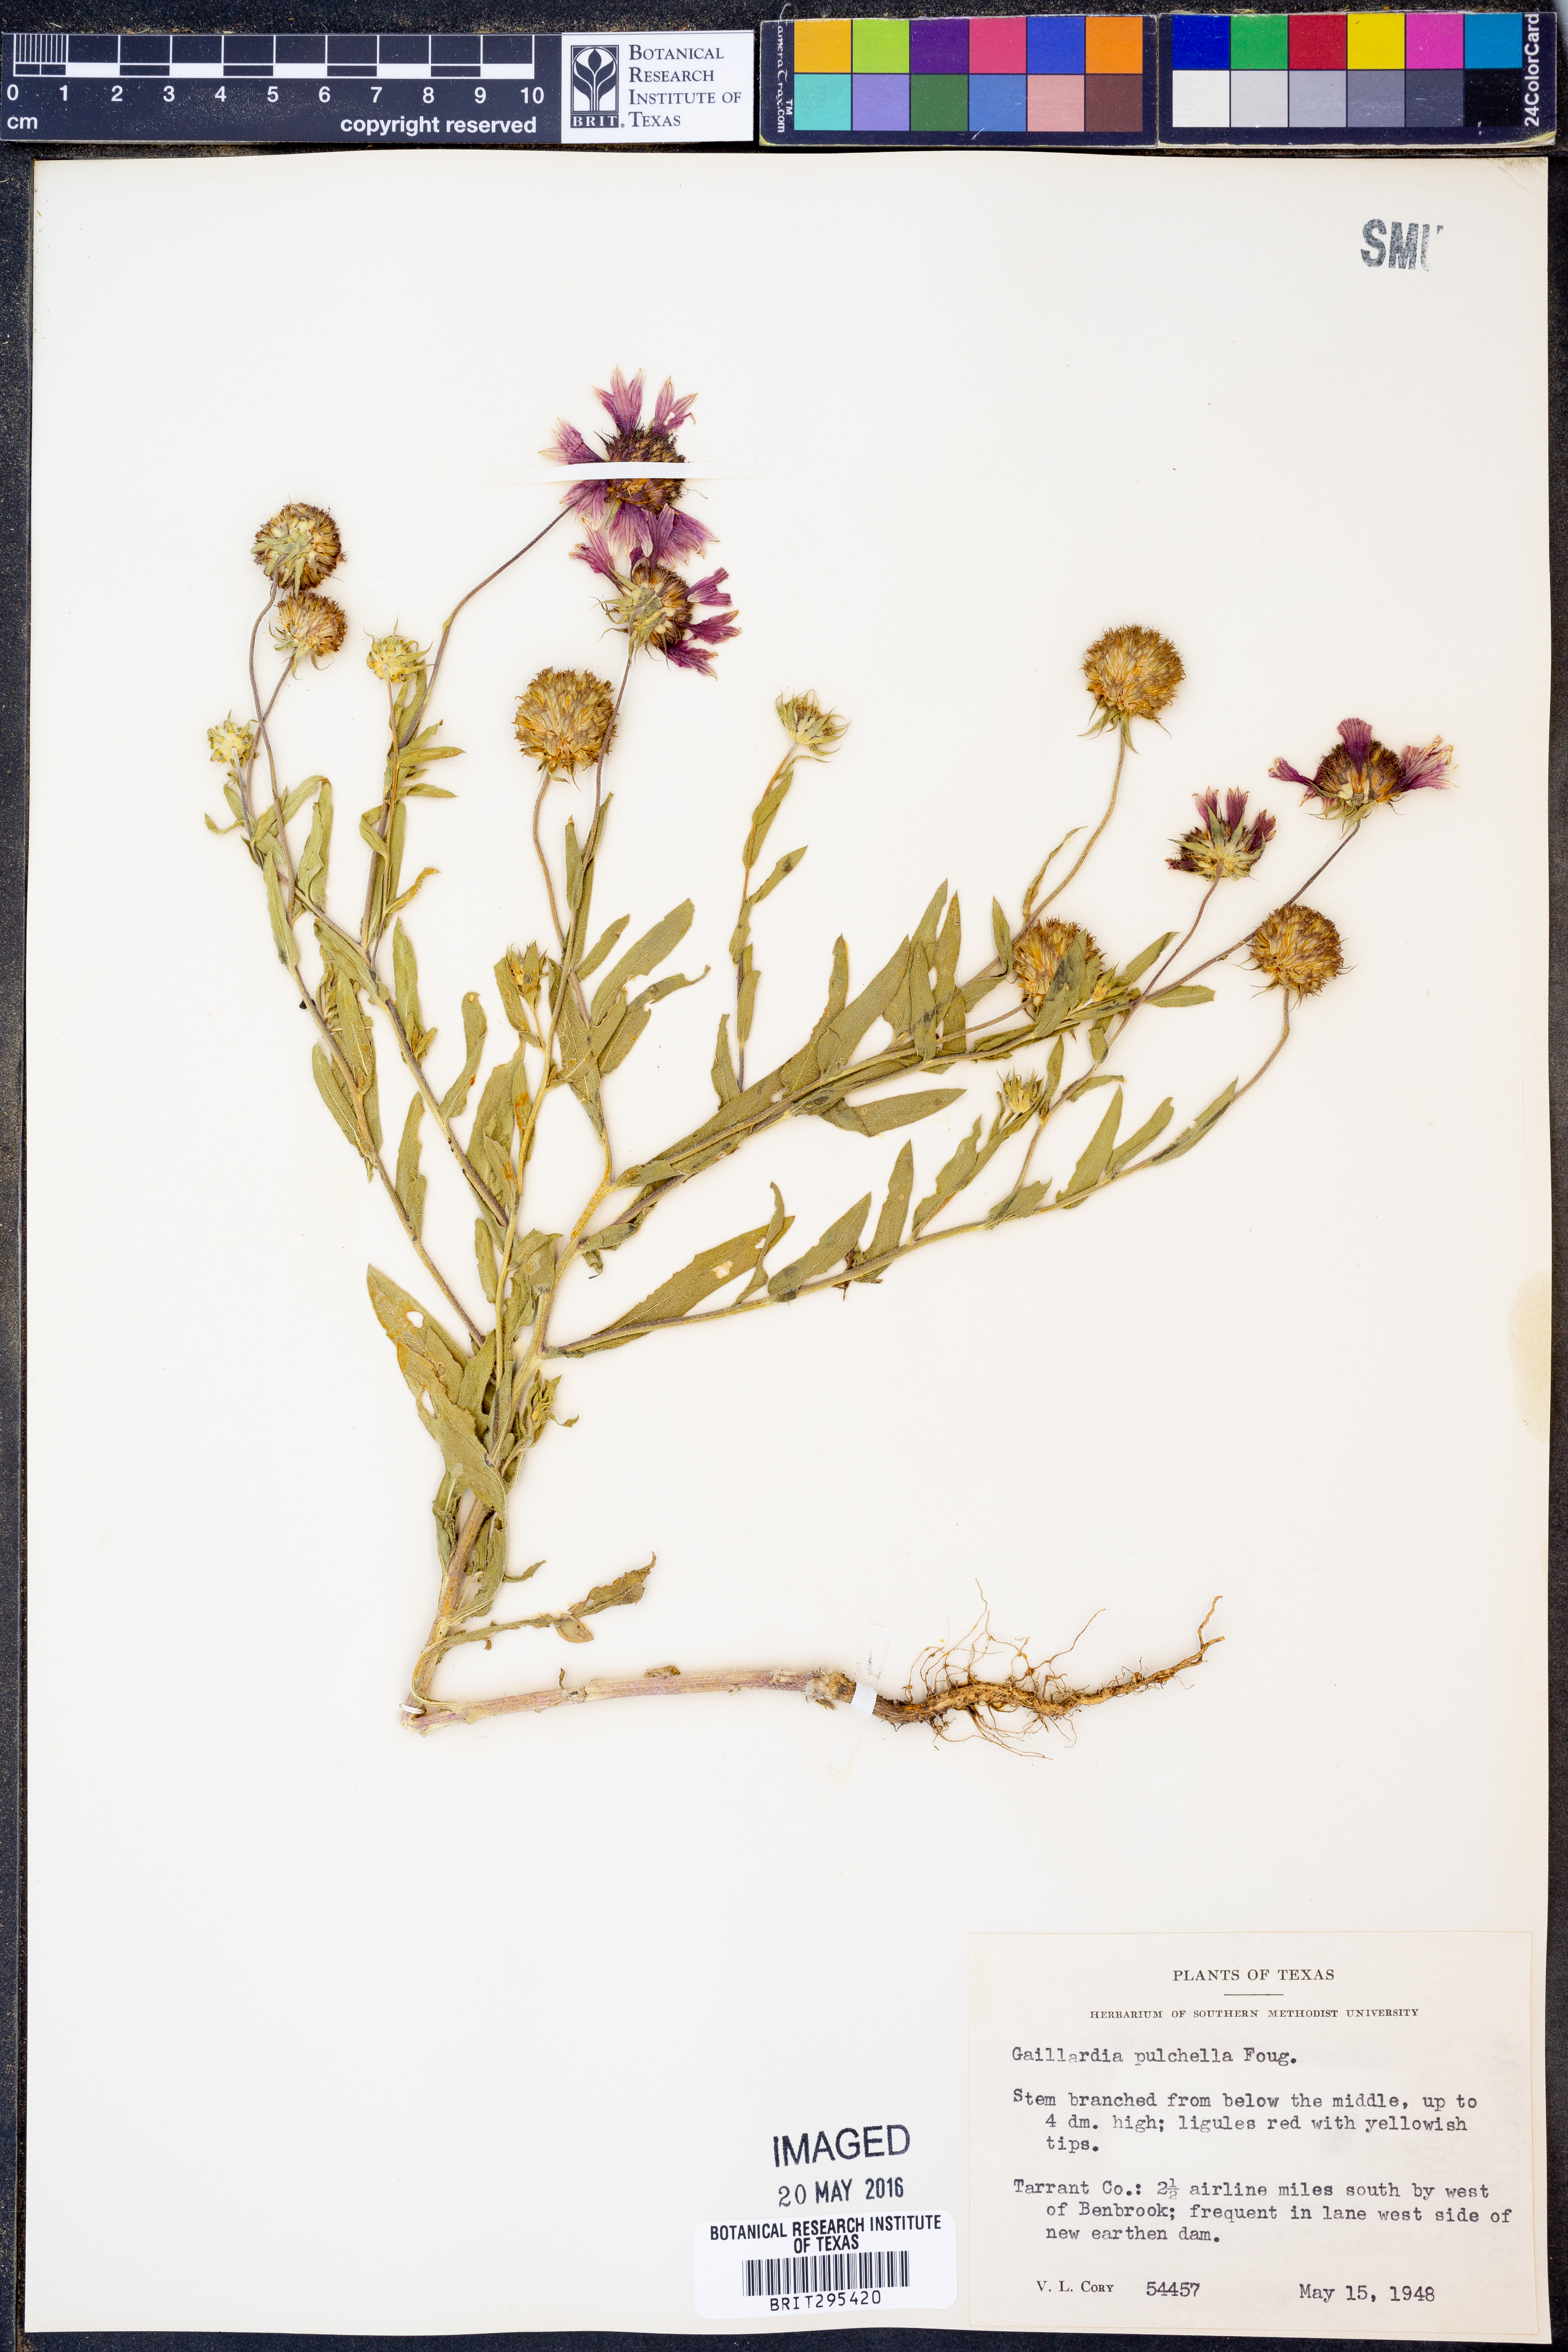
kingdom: Plantae
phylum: Tracheophyta
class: Magnoliopsida
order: Asterales
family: Asteraceae
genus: Gaillardia
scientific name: Gaillardia pulchella
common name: Firewheel
